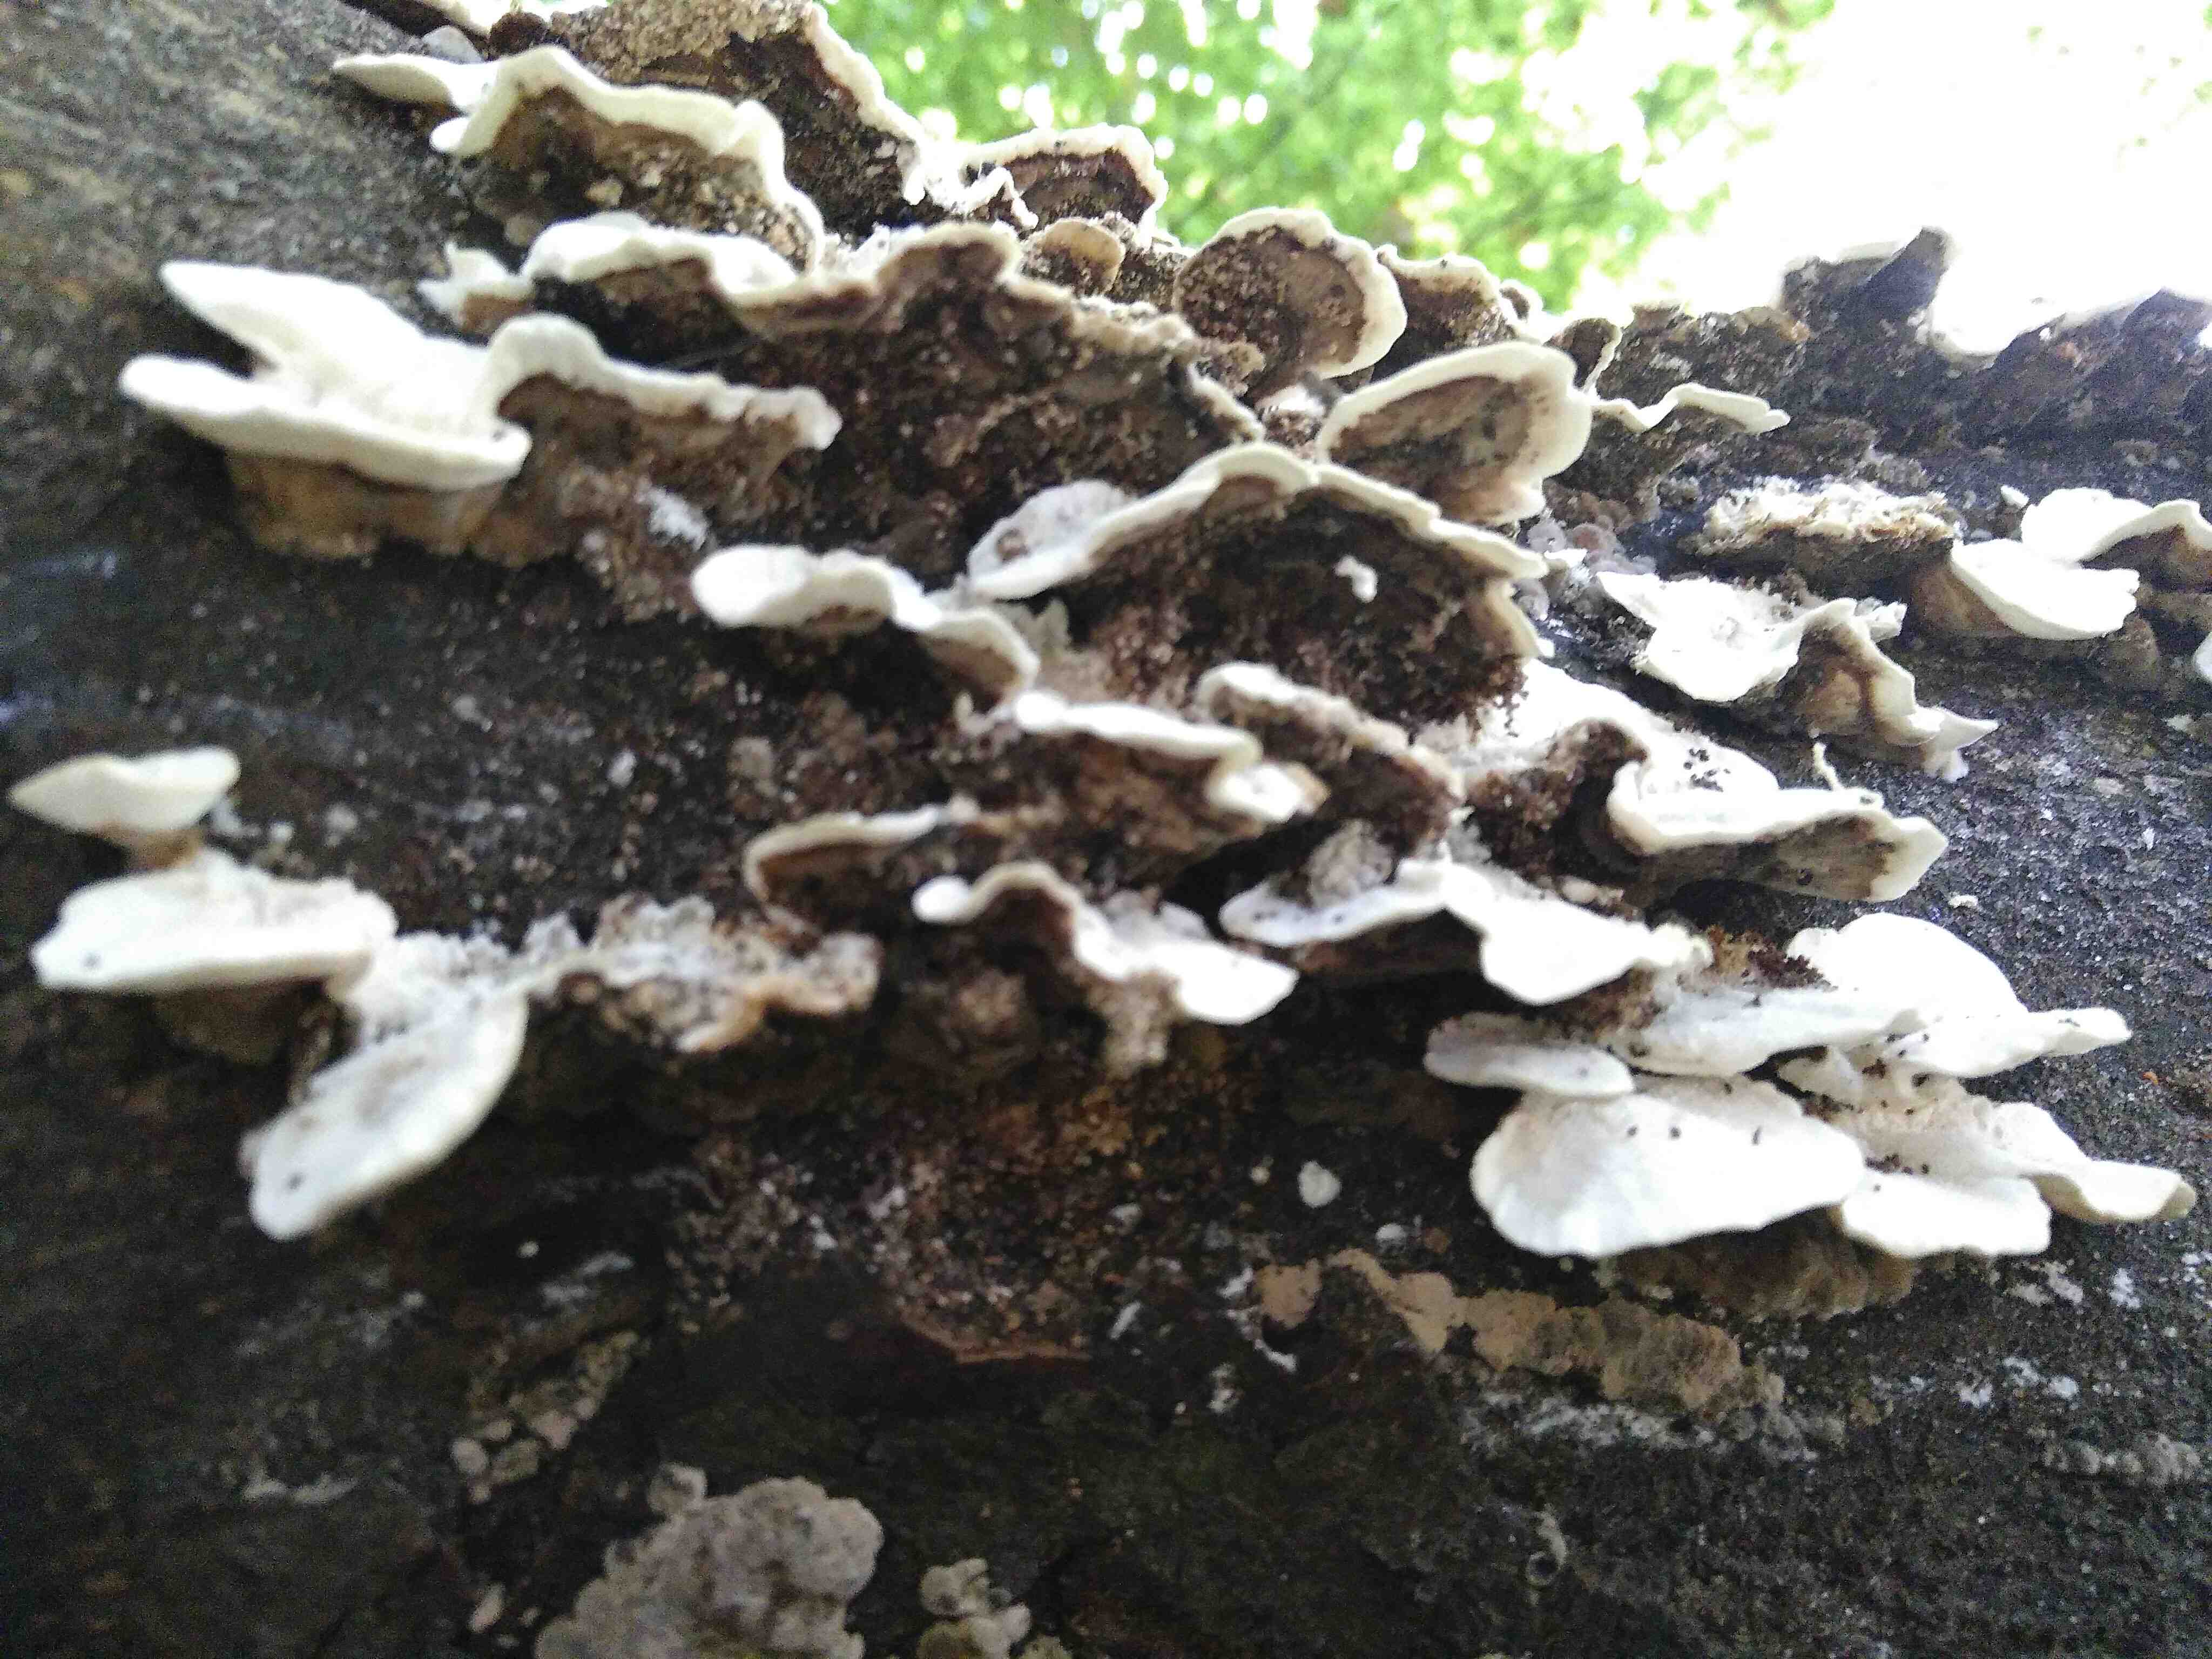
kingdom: Fungi
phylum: Basidiomycota
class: Agaricomycetes
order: Polyporales
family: Phanerochaetaceae
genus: Bjerkandera
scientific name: Bjerkandera adusta
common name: sveden sodporesvamp
